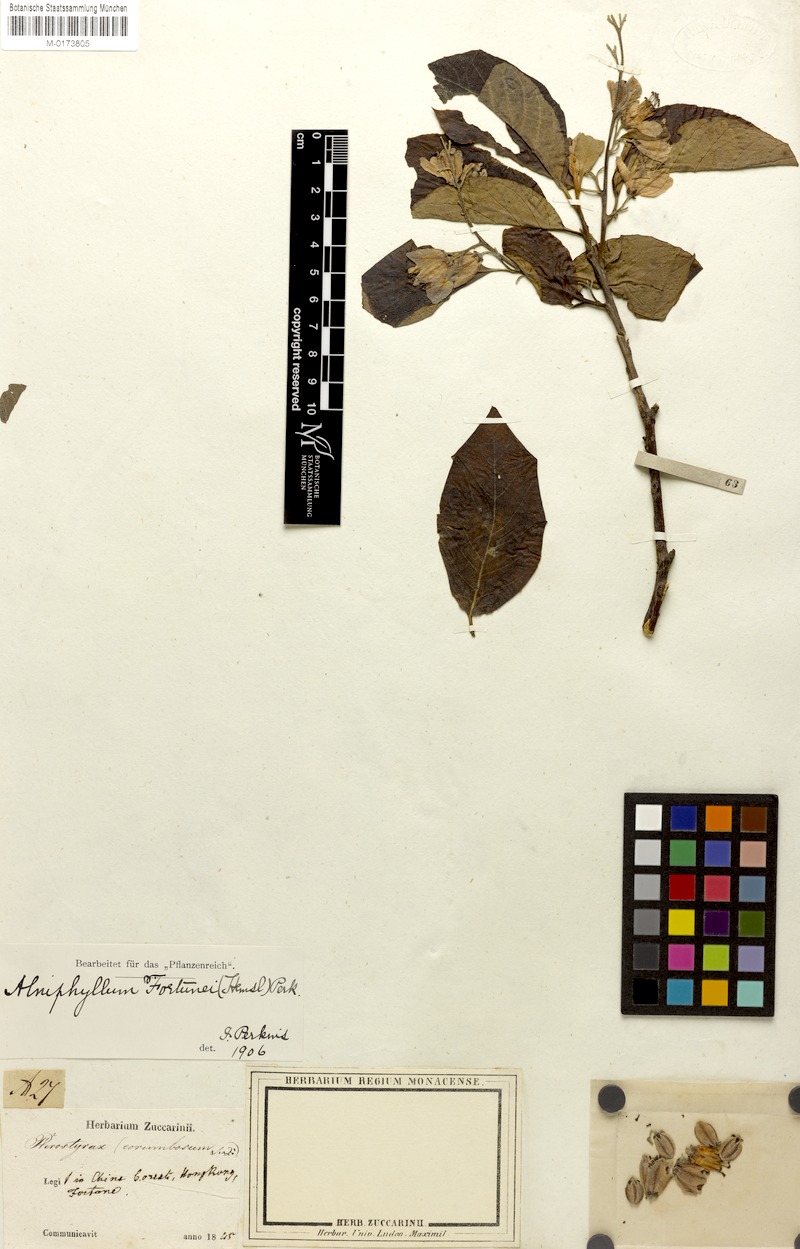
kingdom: Plantae
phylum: Tracheophyta
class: Magnoliopsida
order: Ericales
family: Styracaceae
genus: Alniphyllum
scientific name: Alniphyllum fortunei
